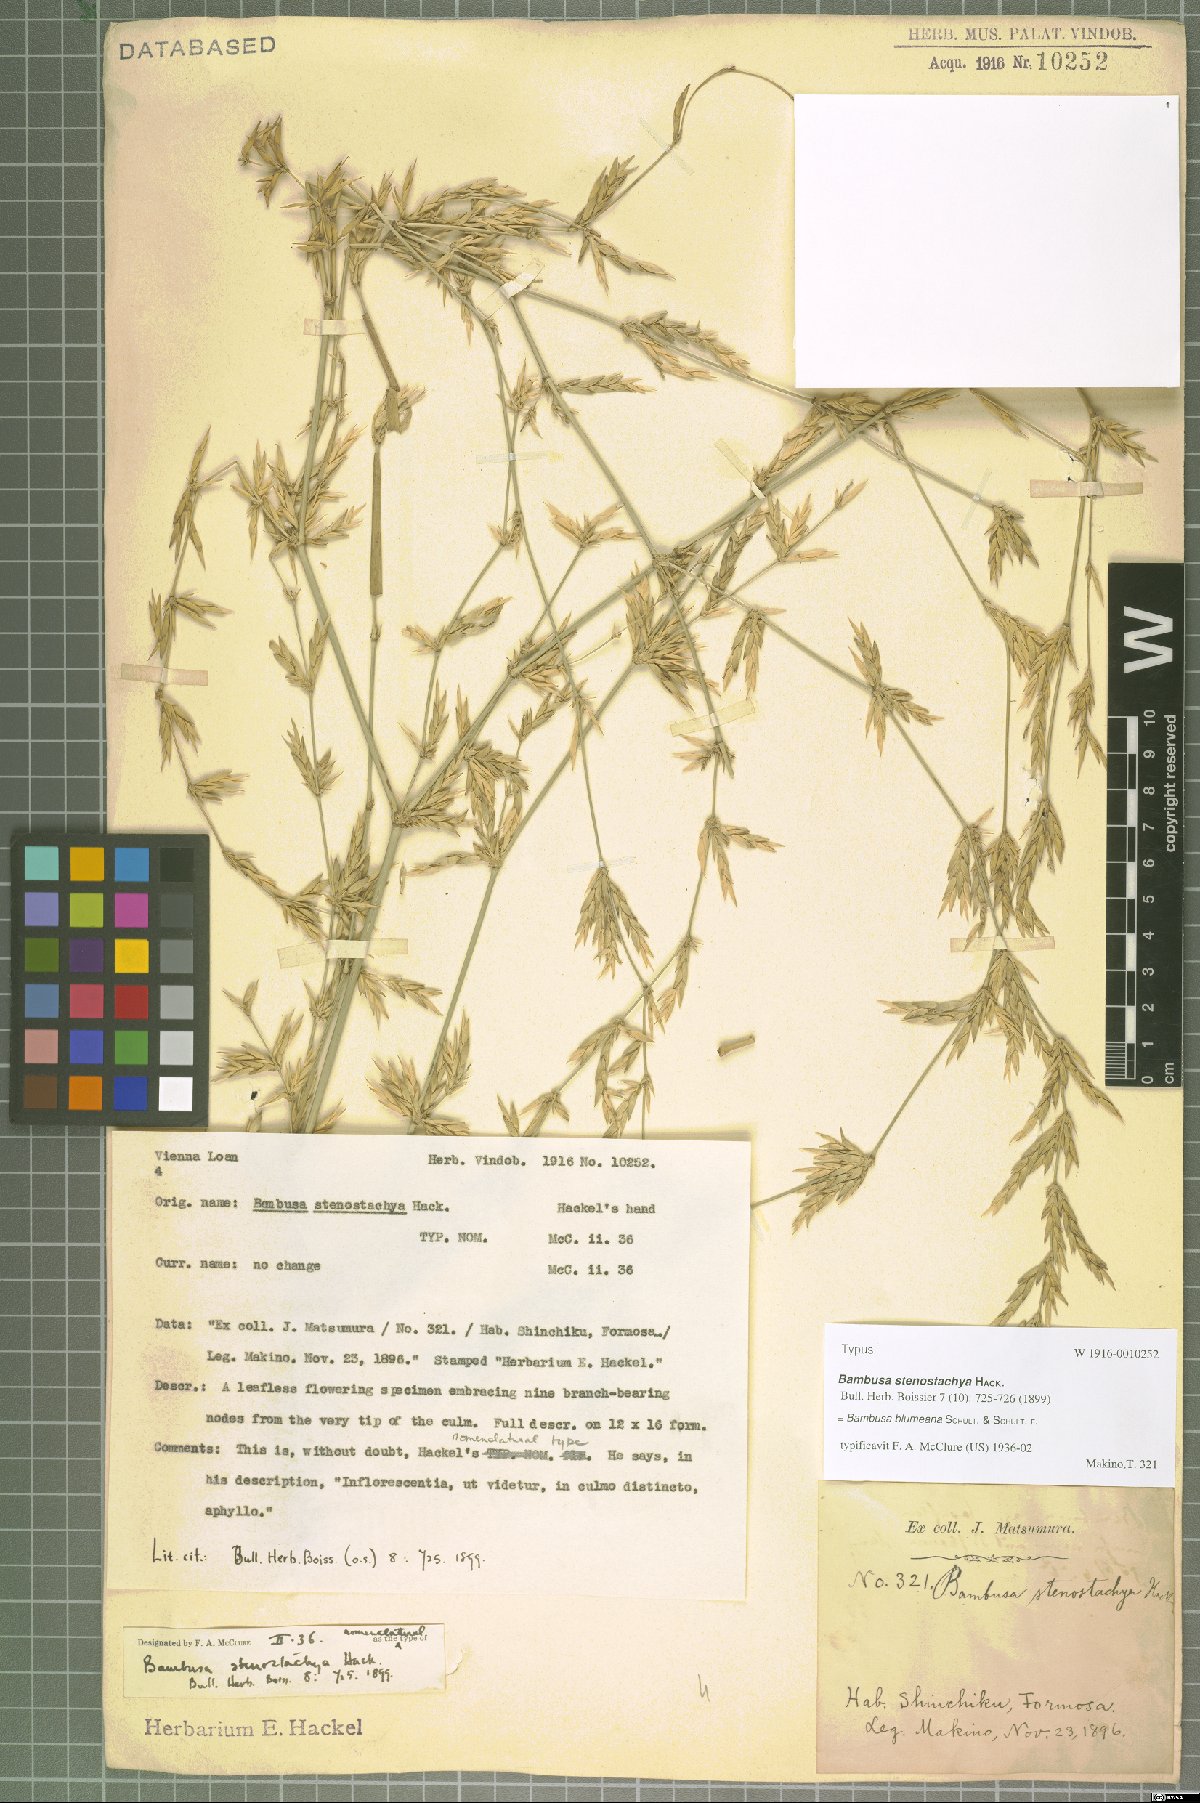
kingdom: Plantae
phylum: Tracheophyta
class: Liliopsida
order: Poales
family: Poaceae
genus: Bambusa
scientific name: Bambusa spinosa
